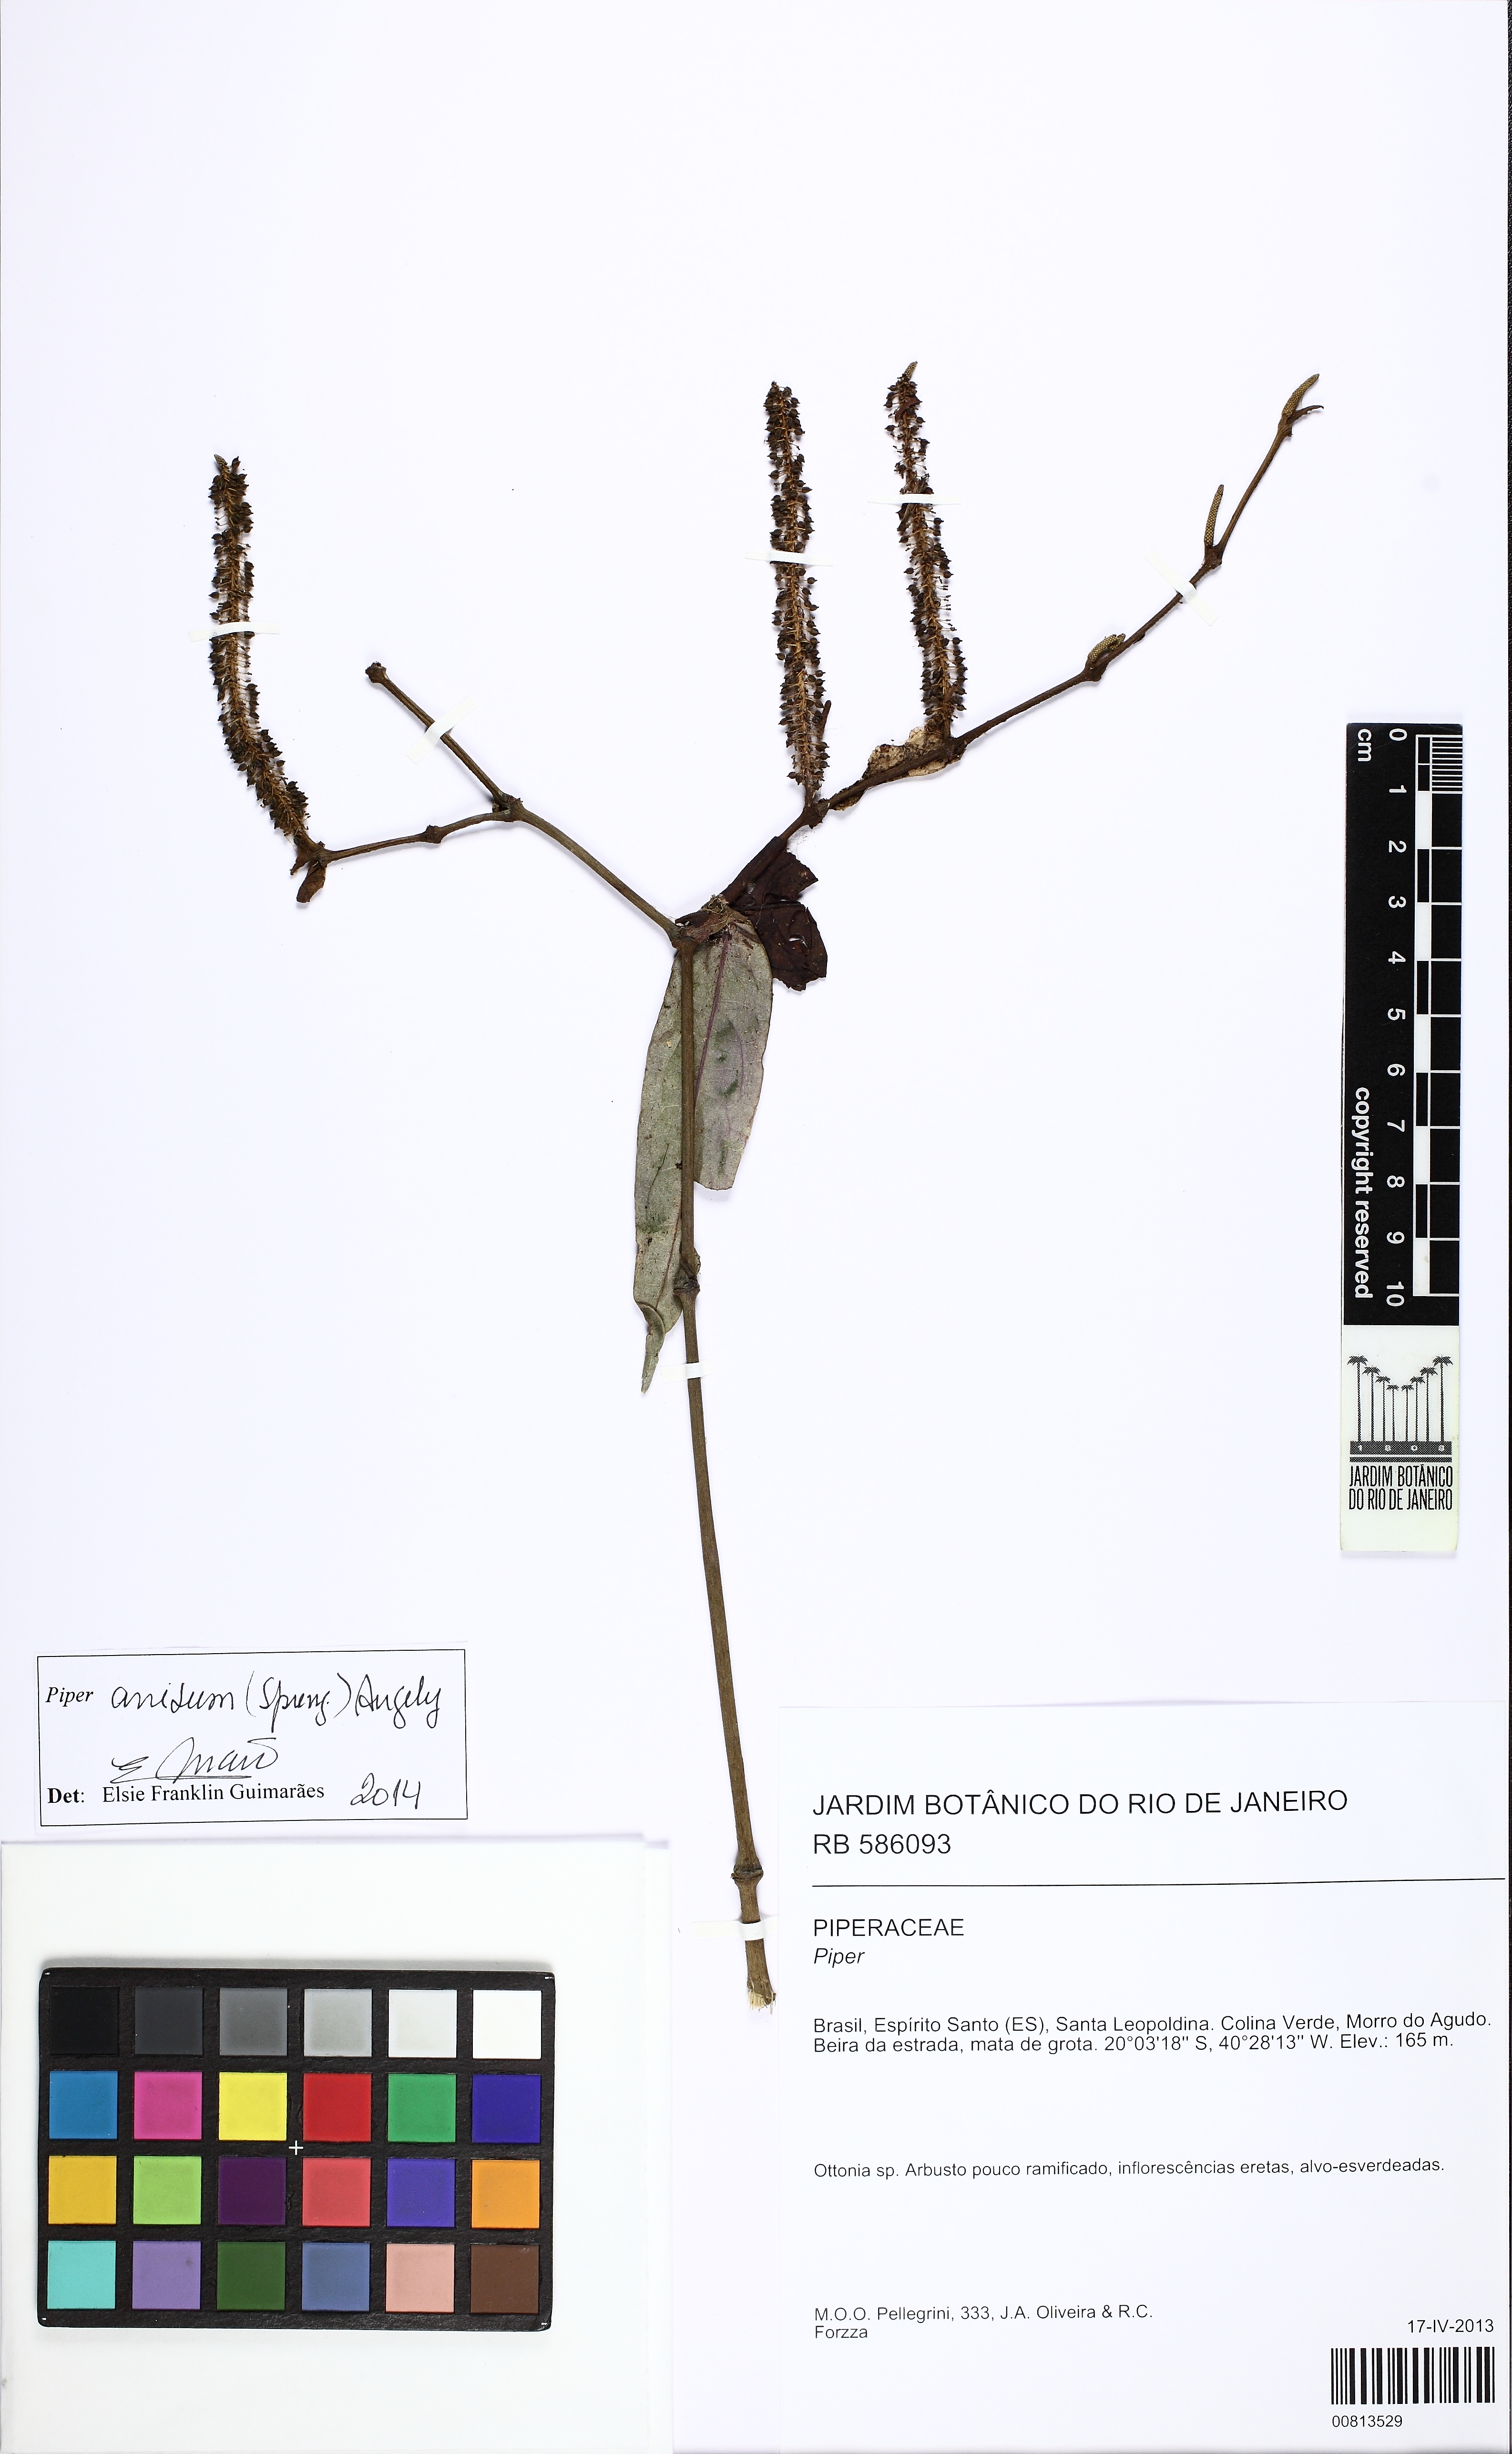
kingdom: Plantae
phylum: Tracheophyta
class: Magnoliopsida
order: Piperales
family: Piperaceae
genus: Piper
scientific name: Piper anisum
